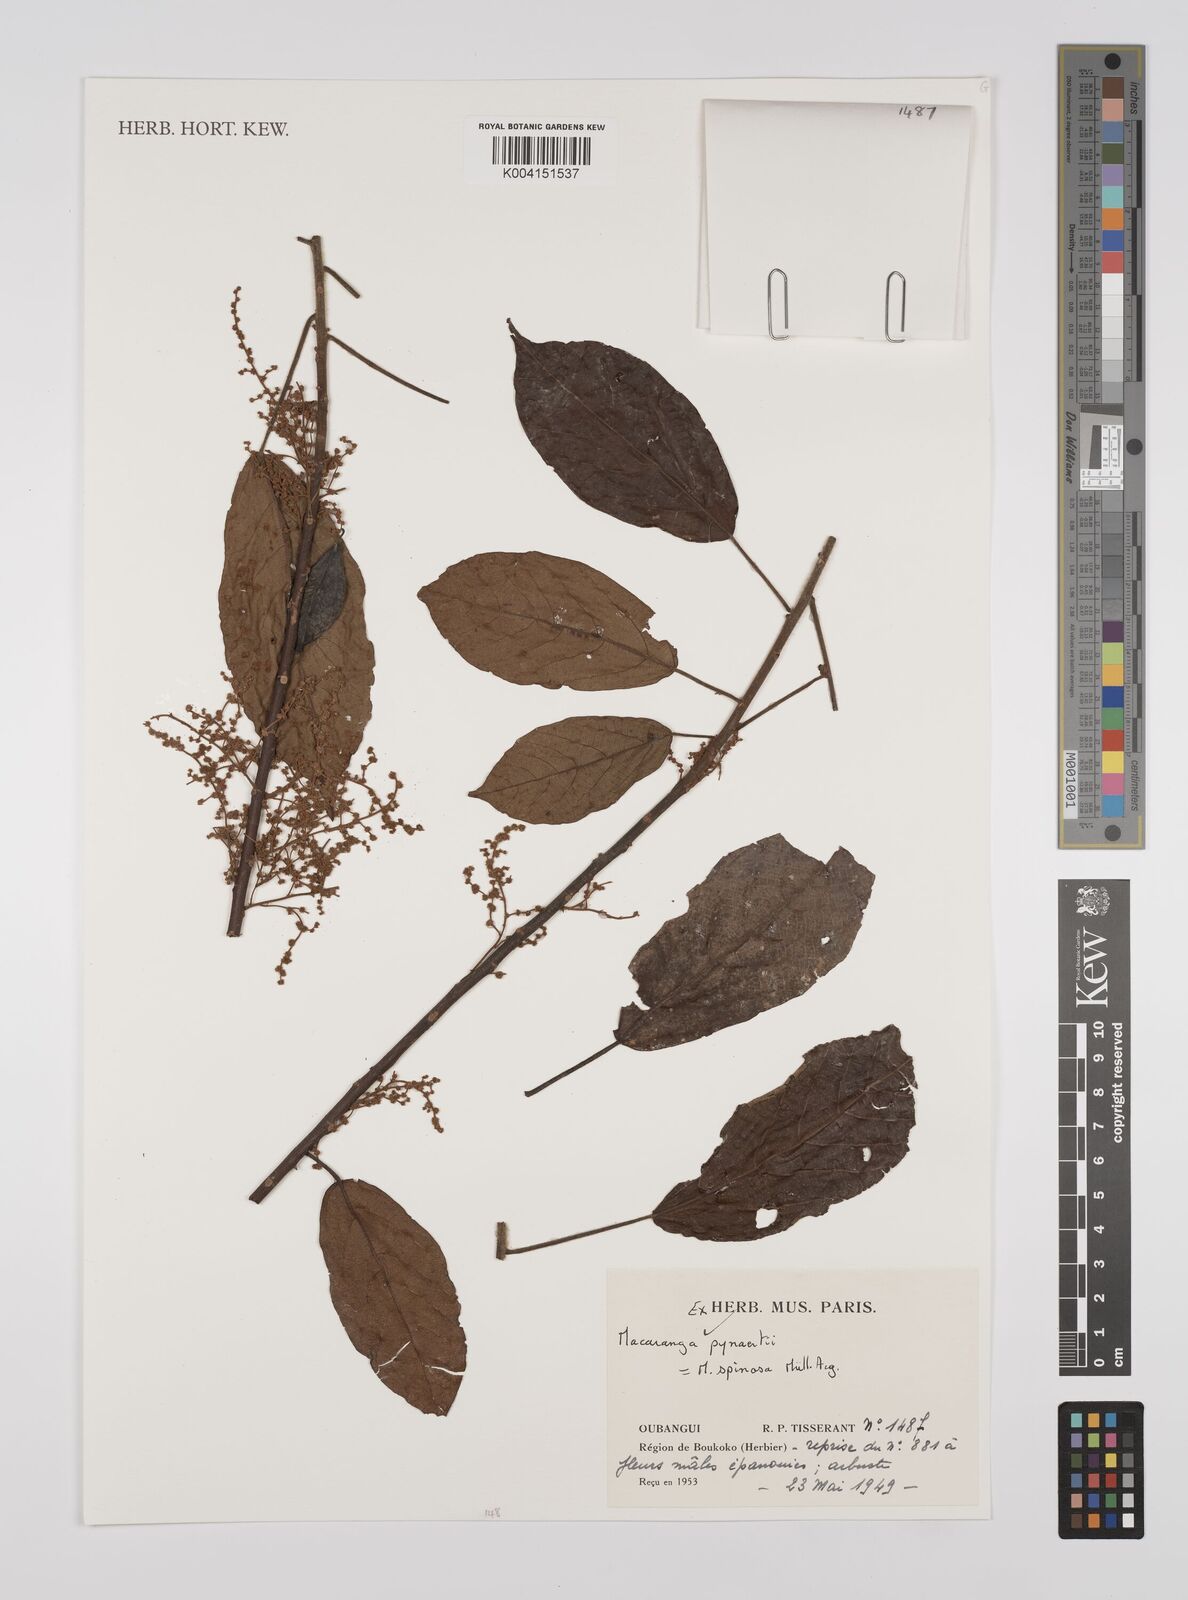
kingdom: Plantae
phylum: Tracheophyta
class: Magnoliopsida
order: Malpighiales
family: Euphorbiaceae
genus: Macaranga
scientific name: Macaranga spinosa
